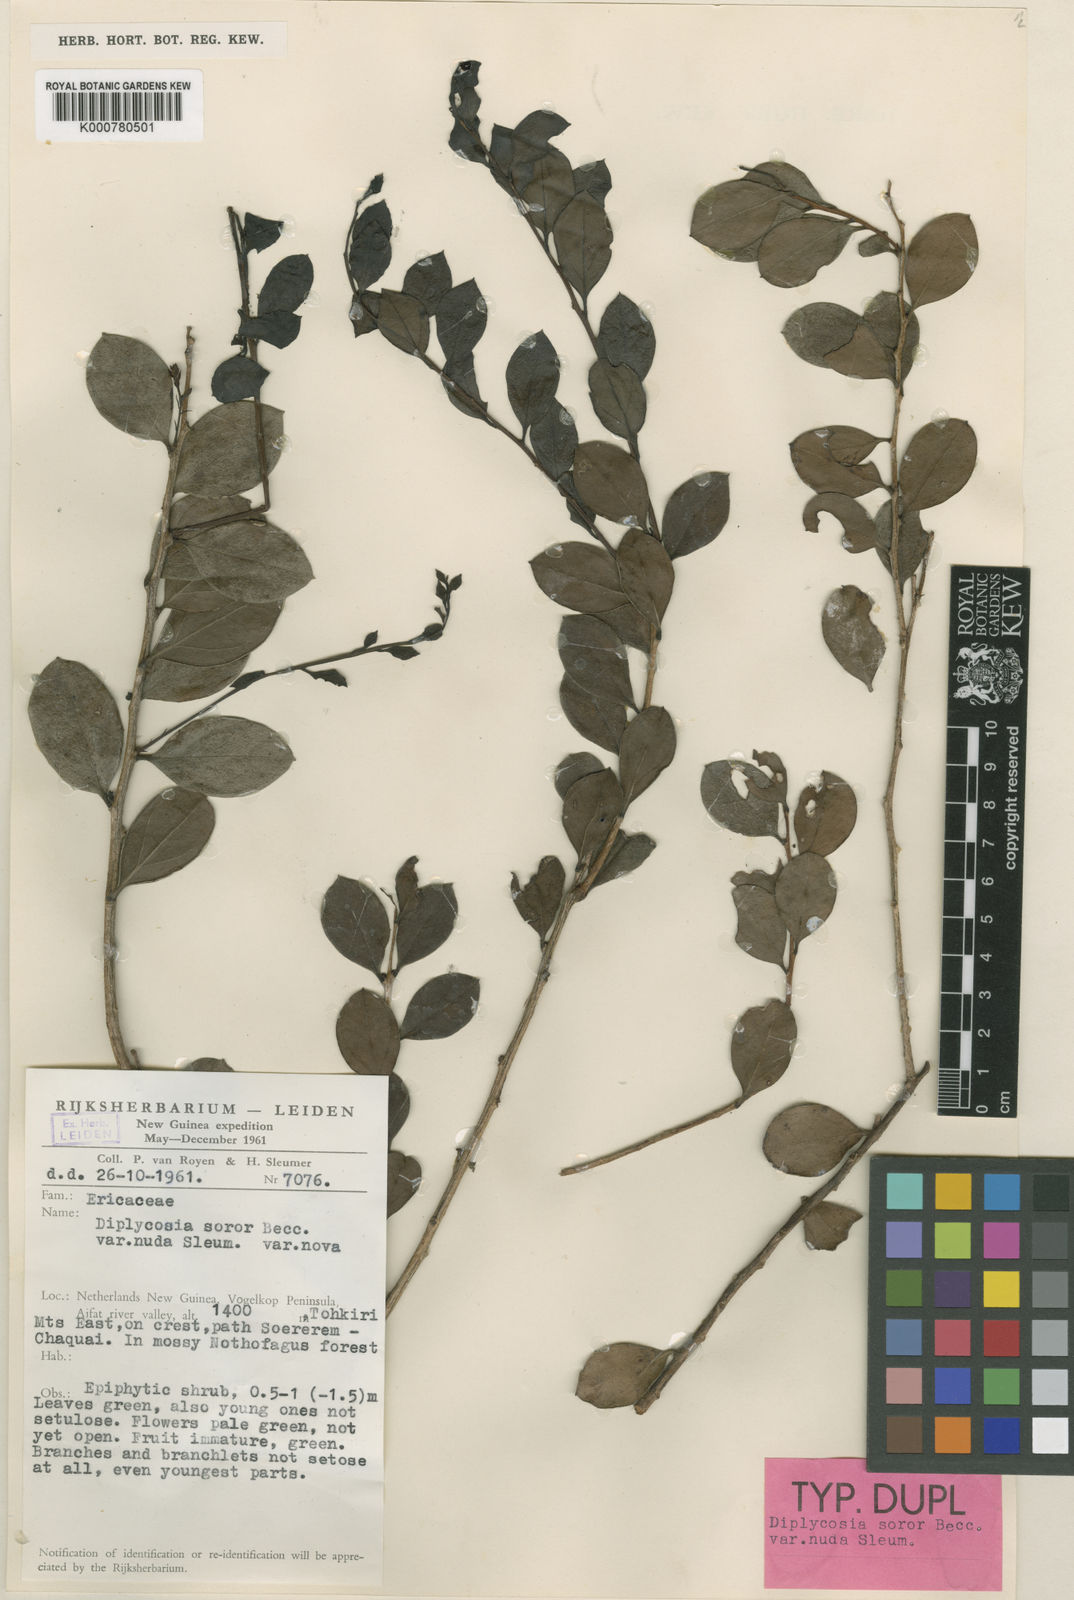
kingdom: Plantae
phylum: Tracheophyta
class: Magnoliopsida
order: Ericales
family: Ericaceae
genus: Gaultheria
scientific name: Gaultheria soror
